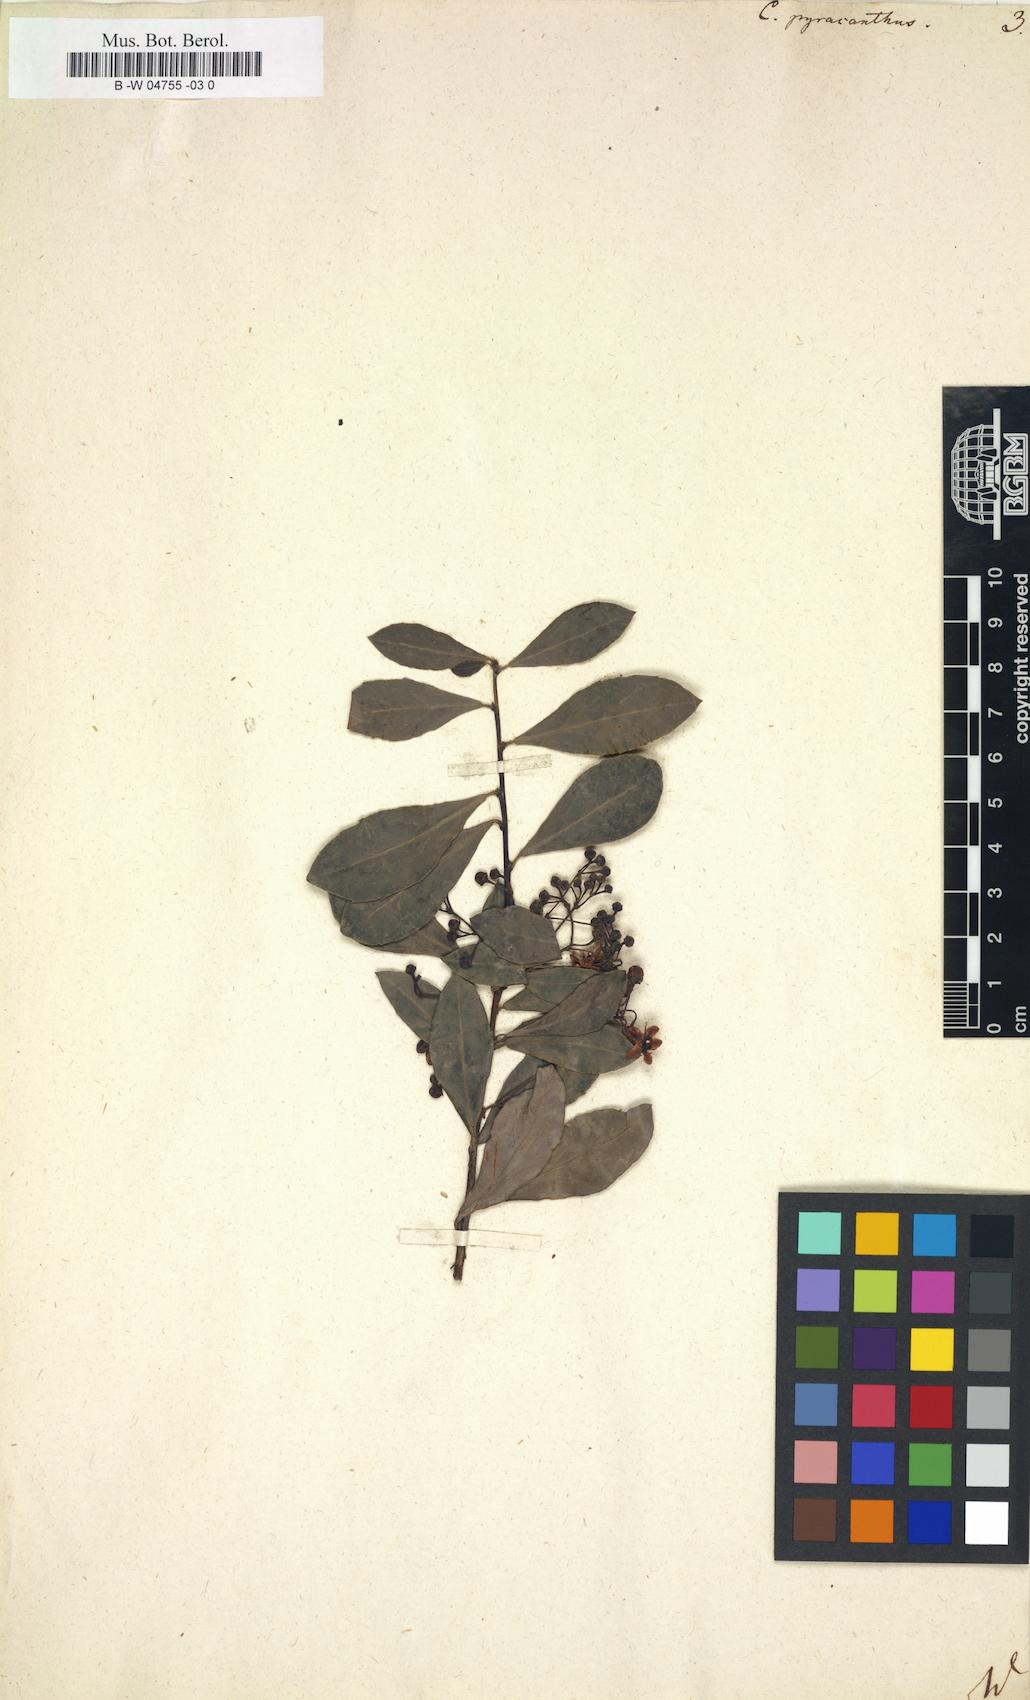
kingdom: Plantae
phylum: Tracheophyta
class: Magnoliopsida
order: Celastrales
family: Celastraceae
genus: Putterlickia
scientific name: Putterlickia pyracantha
